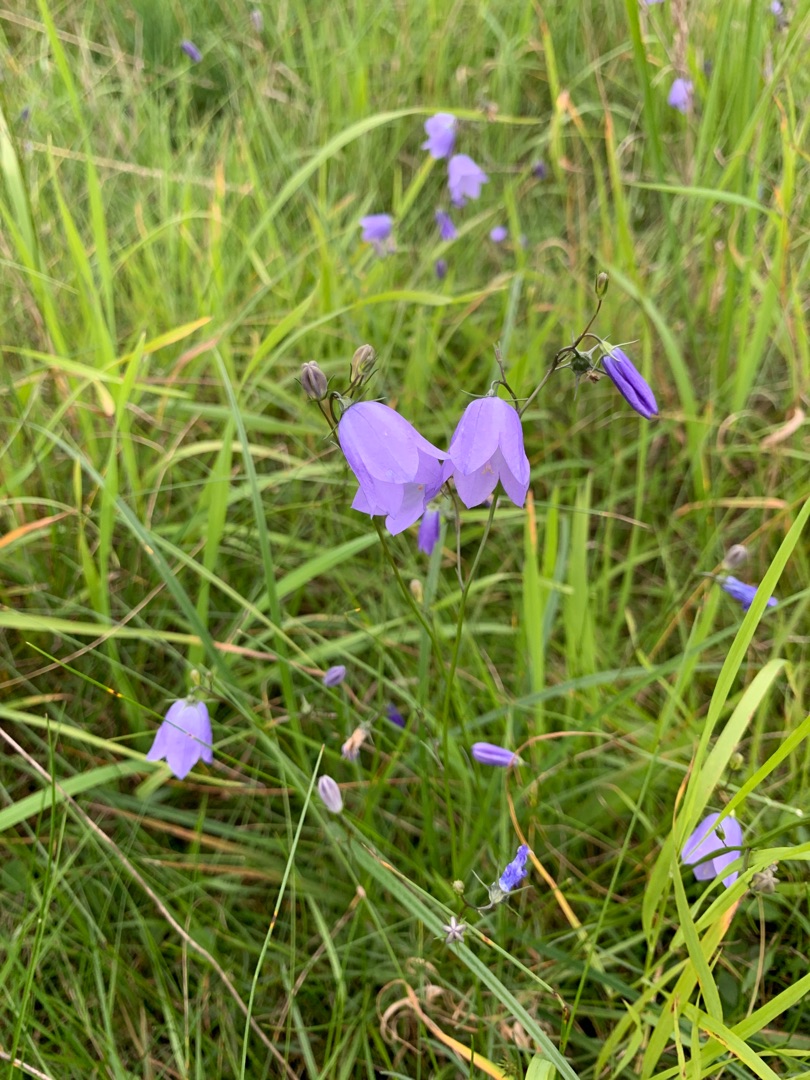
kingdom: Plantae
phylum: Tracheophyta
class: Magnoliopsida
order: Asterales
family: Campanulaceae
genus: Campanula
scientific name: Campanula rotundifolia
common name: Liden klokke
